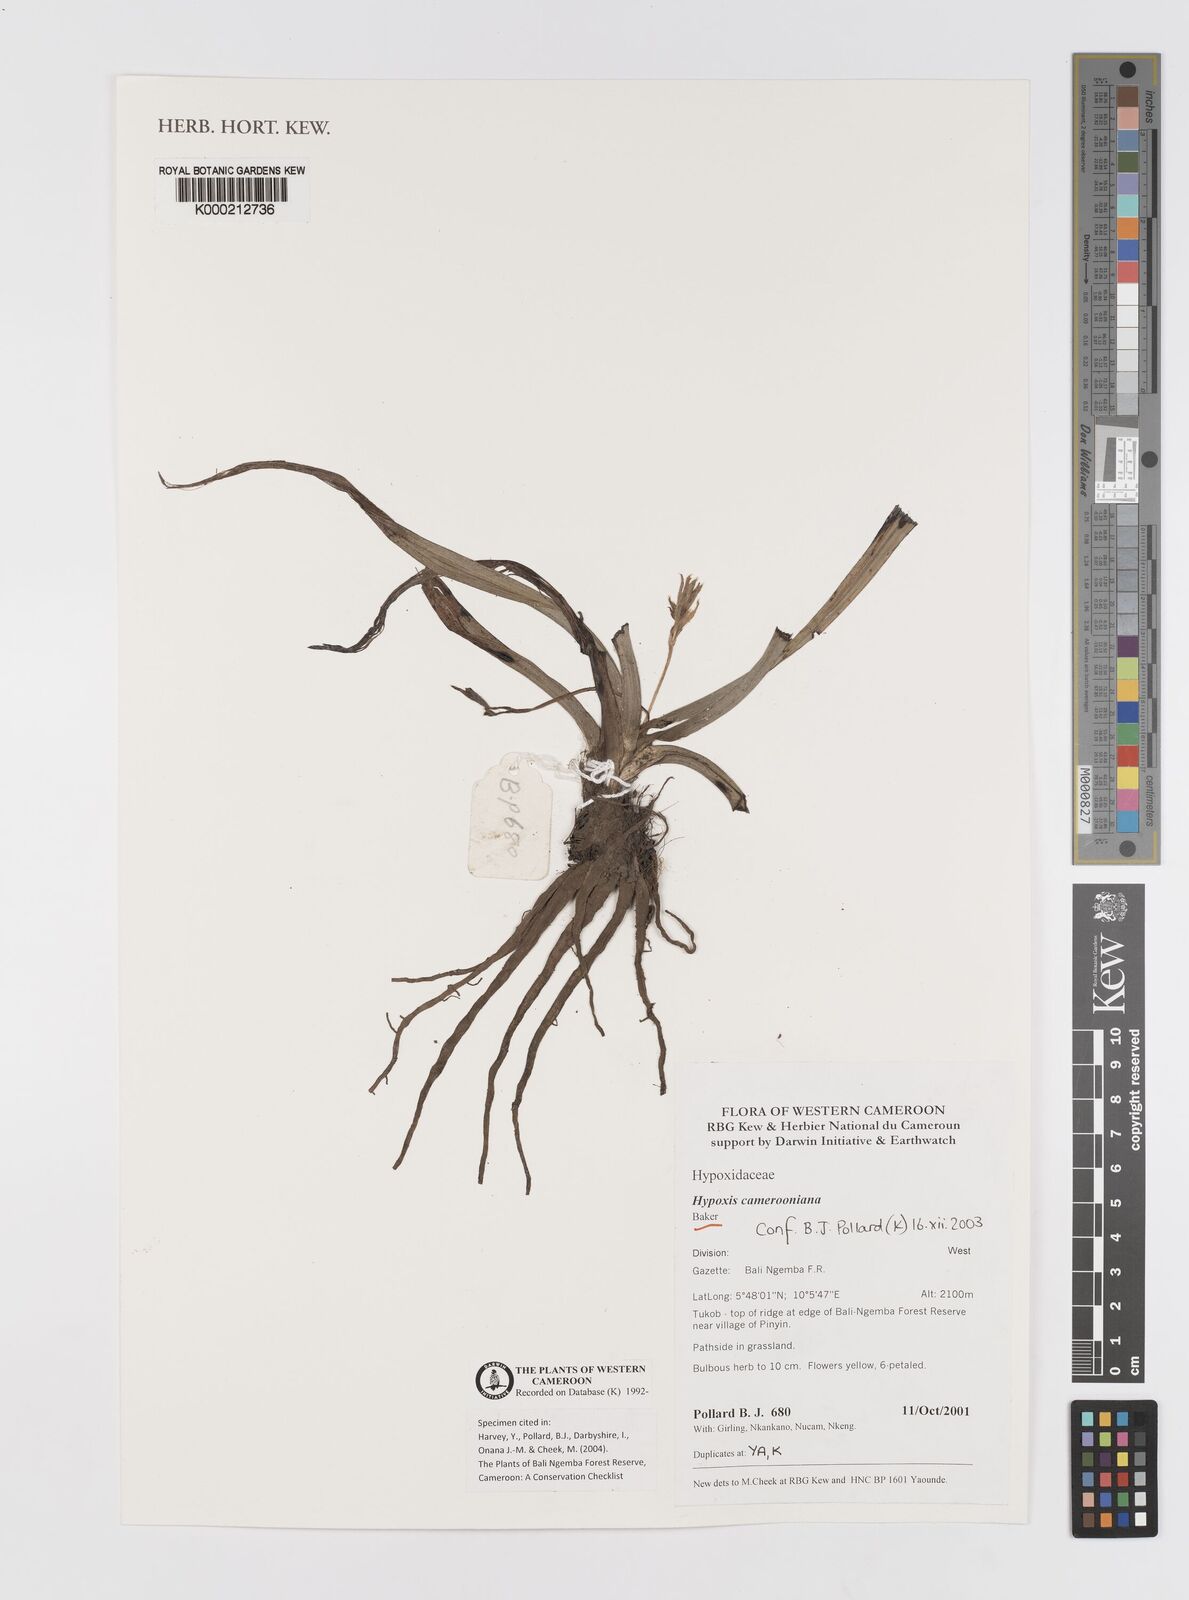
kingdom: Plantae
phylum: Tracheophyta
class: Liliopsida
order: Asparagales
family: Hypoxidaceae
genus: Hypoxis
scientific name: Hypoxis camerooniana
